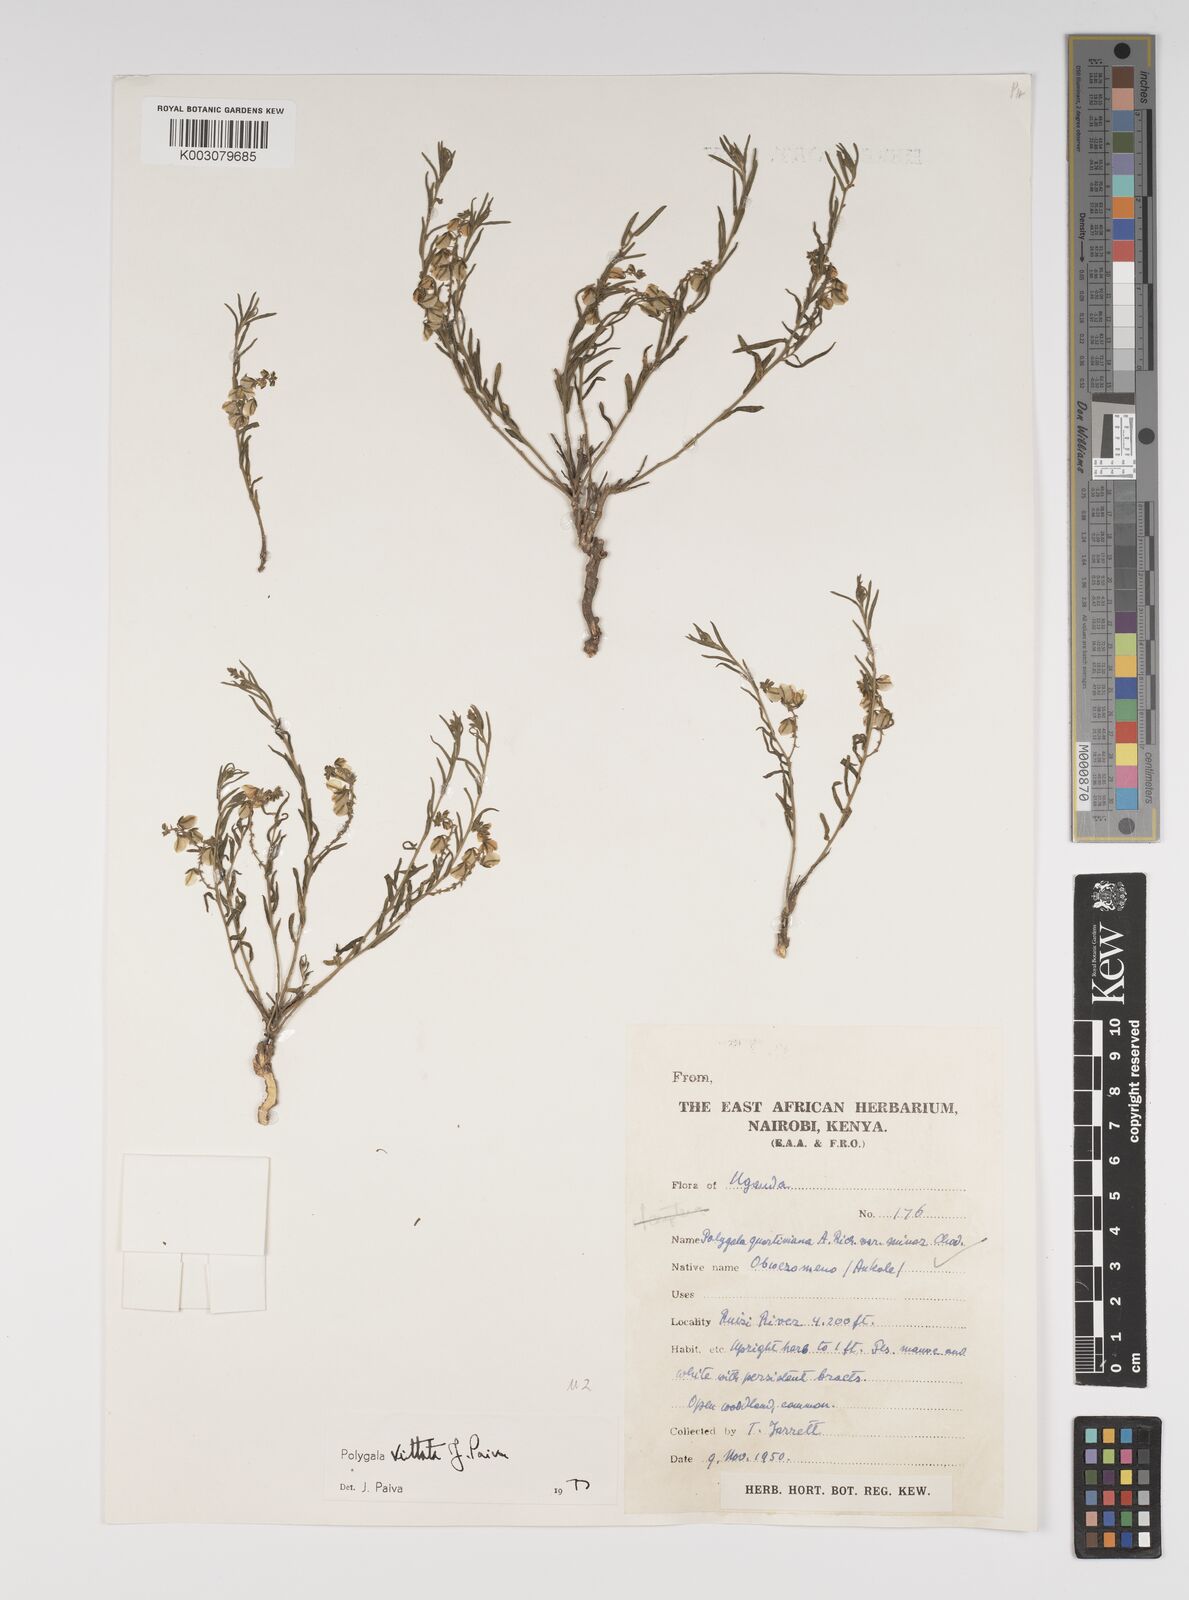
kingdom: Plantae
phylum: Tracheophyta
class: Magnoliopsida
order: Fabales
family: Polygalaceae
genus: Polygala
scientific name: Polygala vittata
